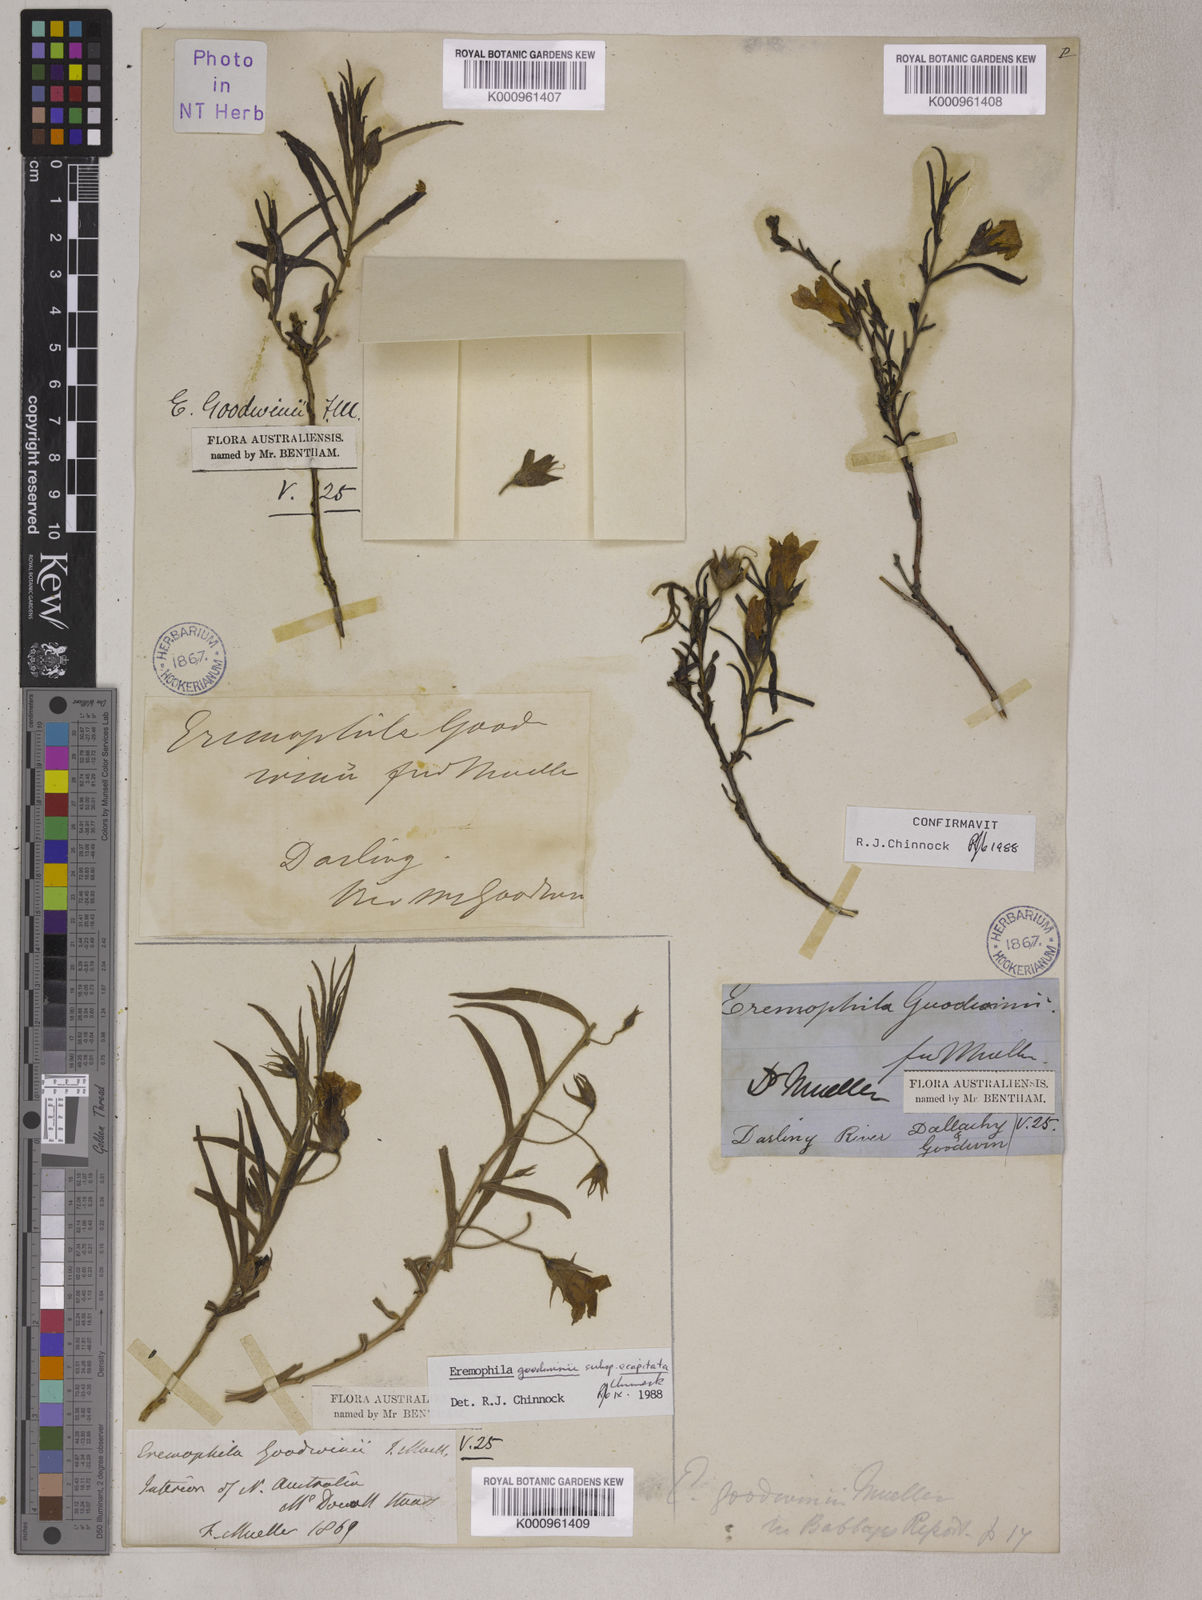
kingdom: Plantae
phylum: Tracheophyta
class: Magnoliopsida
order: Lamiales
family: Scrophulariaceae
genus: Eremophila
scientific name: Eremophila goodwinii
